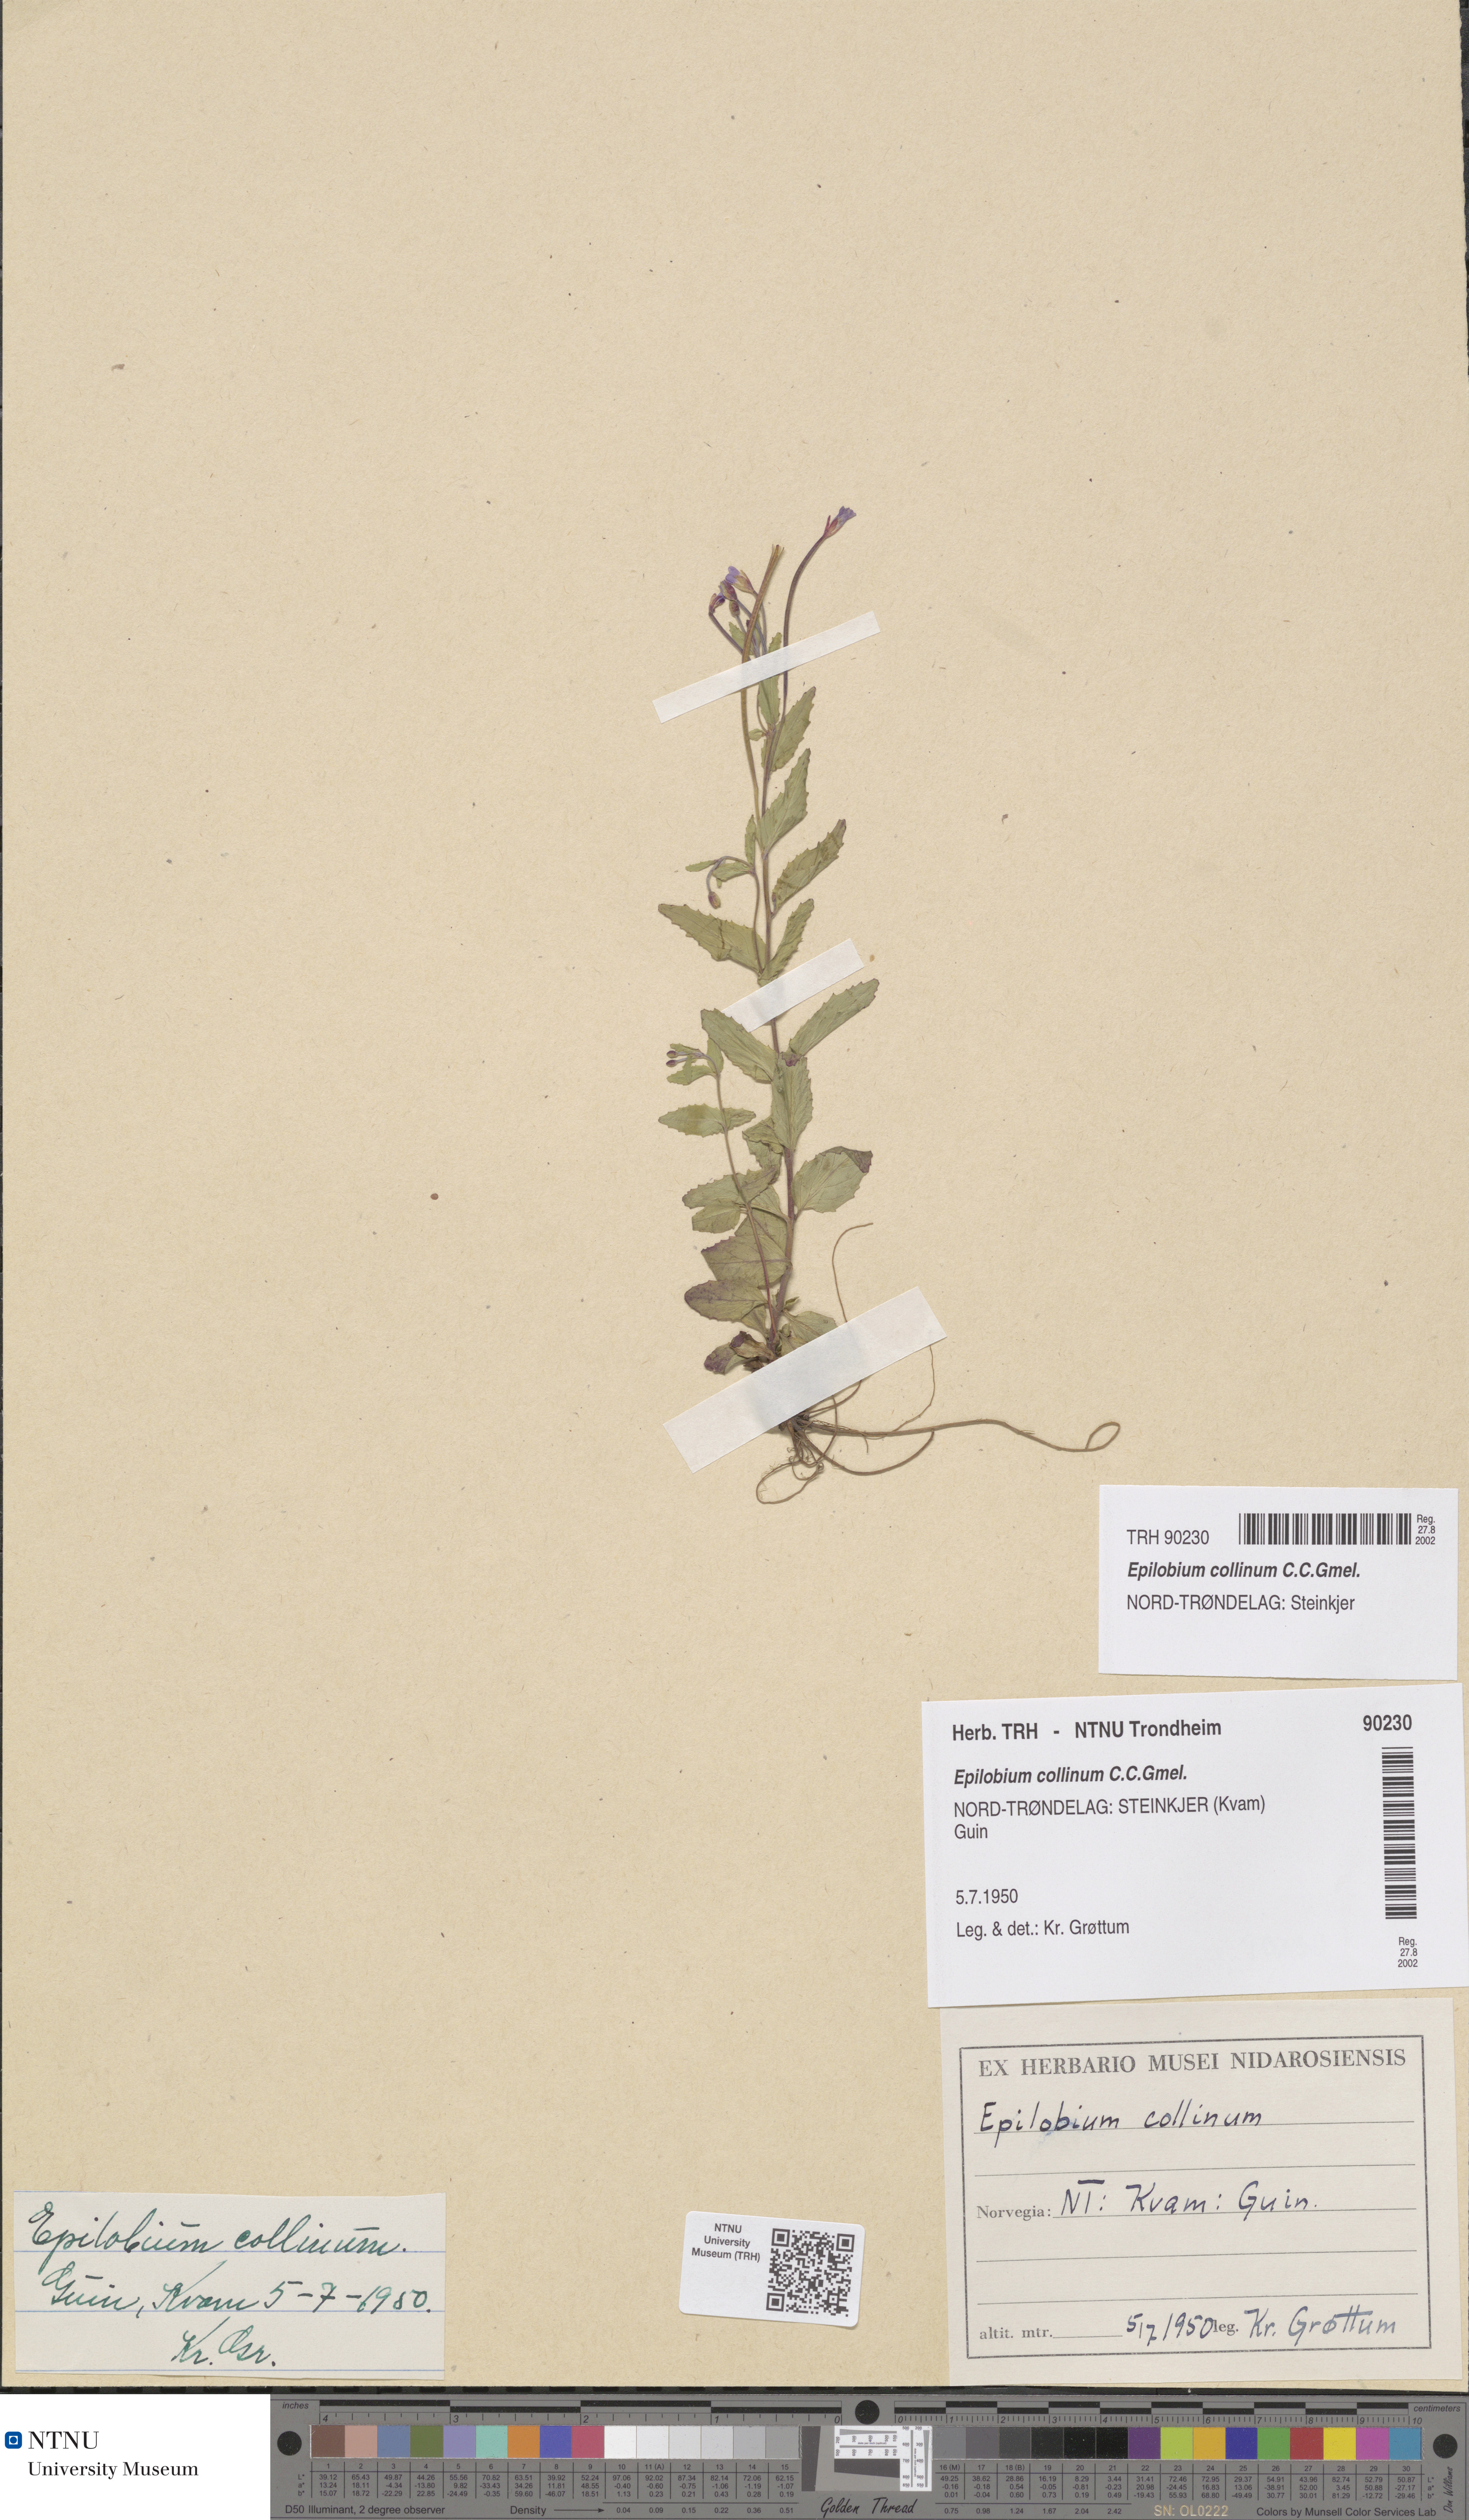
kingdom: Plantae
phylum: Tracheophyta
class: Magnoliopsida
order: Myrtales
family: Onagraceae
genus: Epilobium
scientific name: Epilobium collinum
